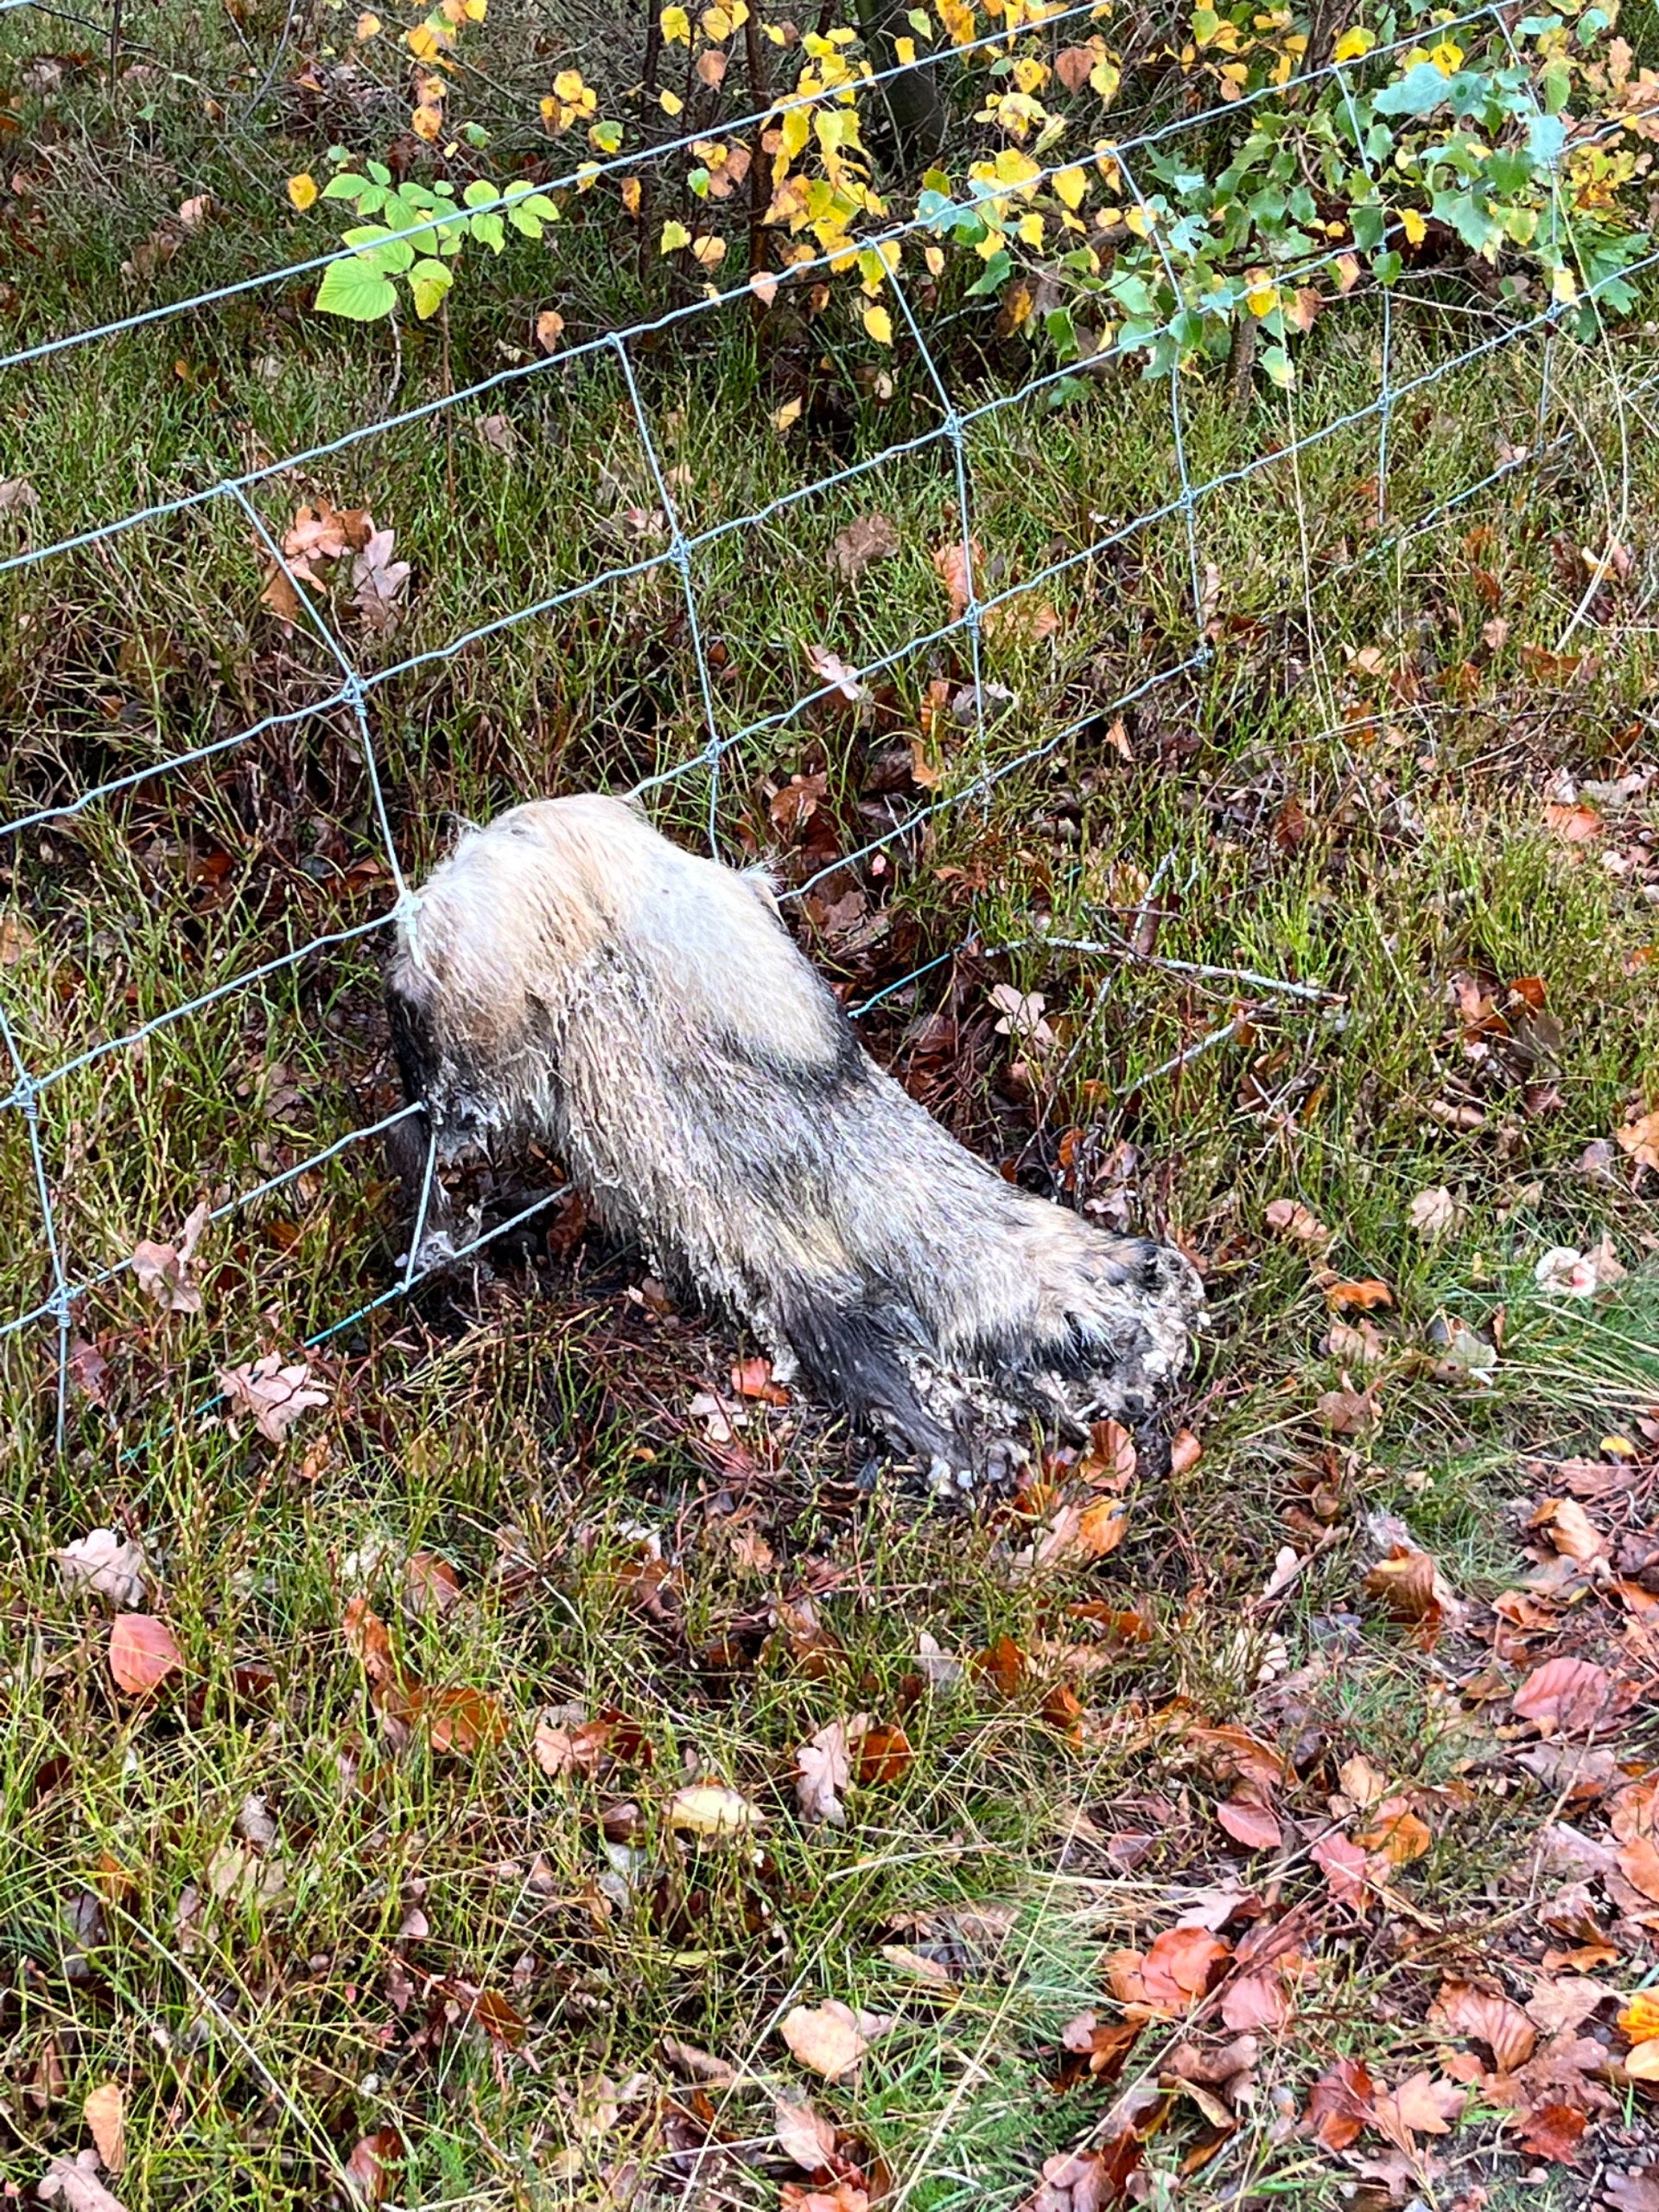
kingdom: Animalia
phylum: Chordata
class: Mammalia
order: Carnivora
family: Canidae
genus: Nyctereutes
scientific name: Nyctereutes procyonoides
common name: Mårhund
